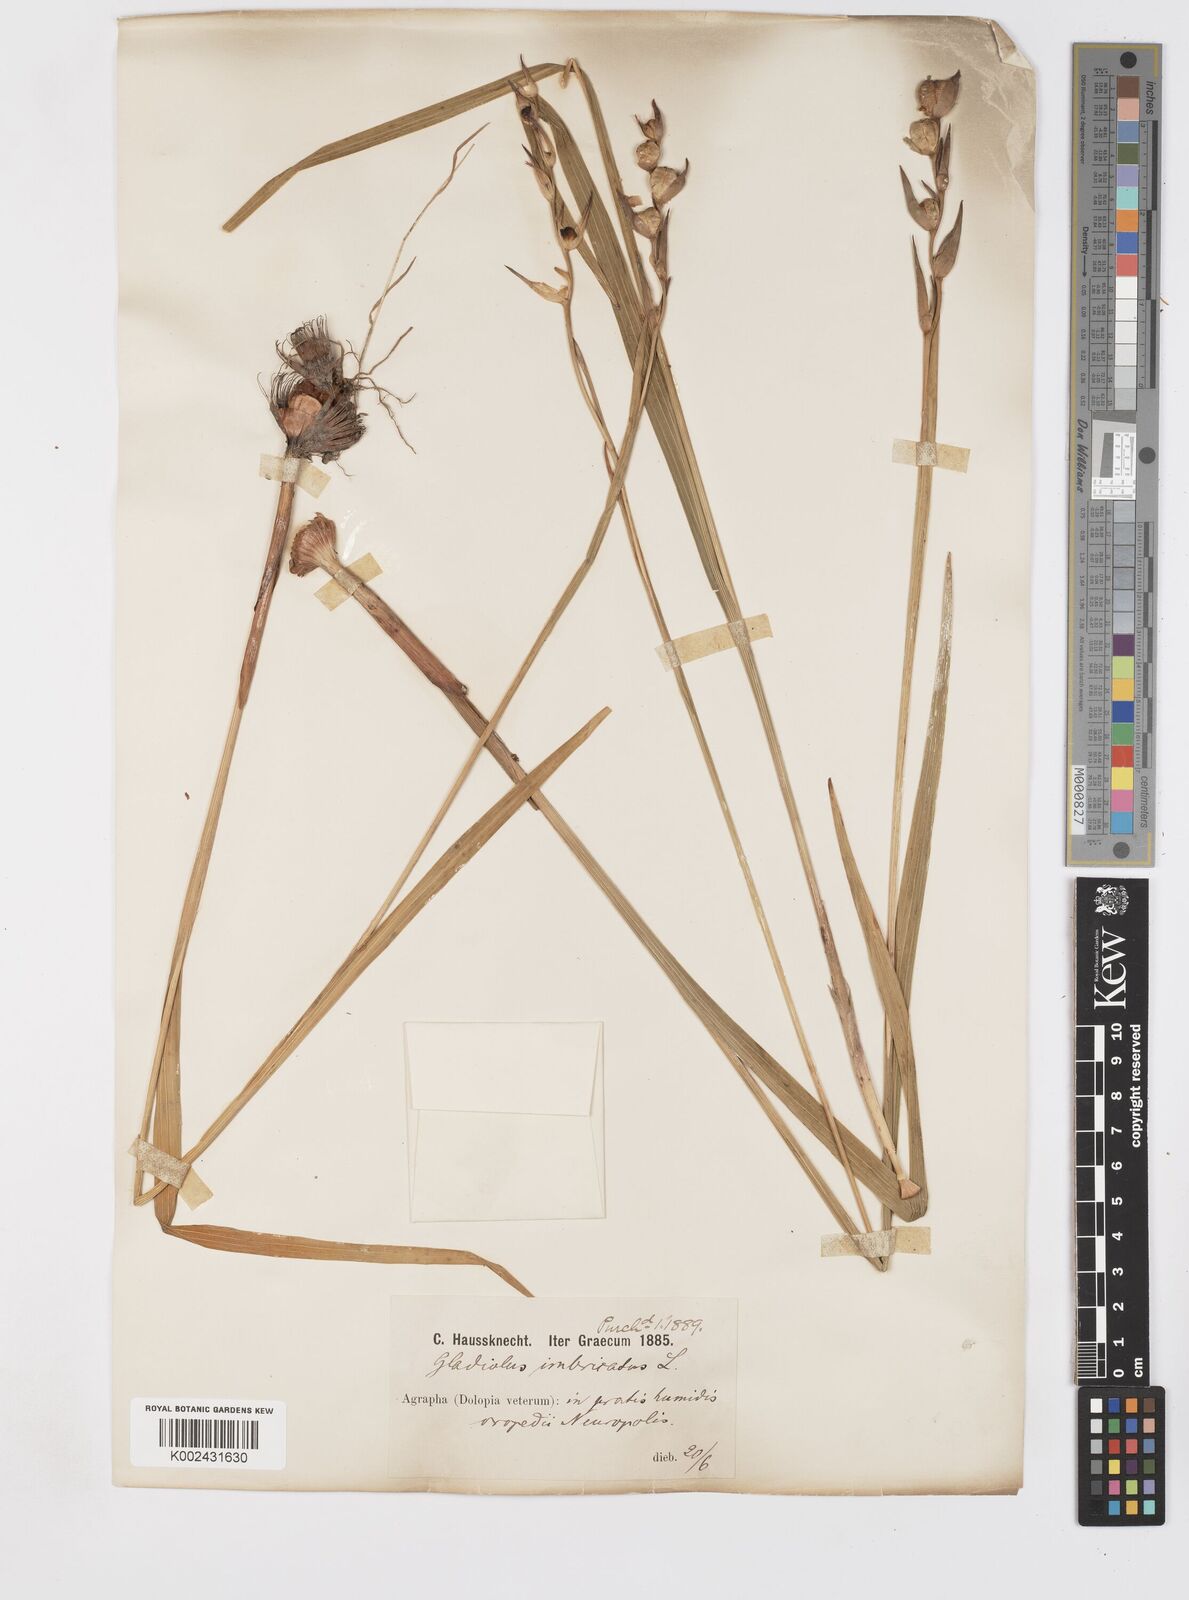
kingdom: Plantae
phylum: Tracheophyta
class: Liliopsida
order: Asparagales
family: Iridaceae
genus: Gladiolus
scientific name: Gladiolus imbricatus
